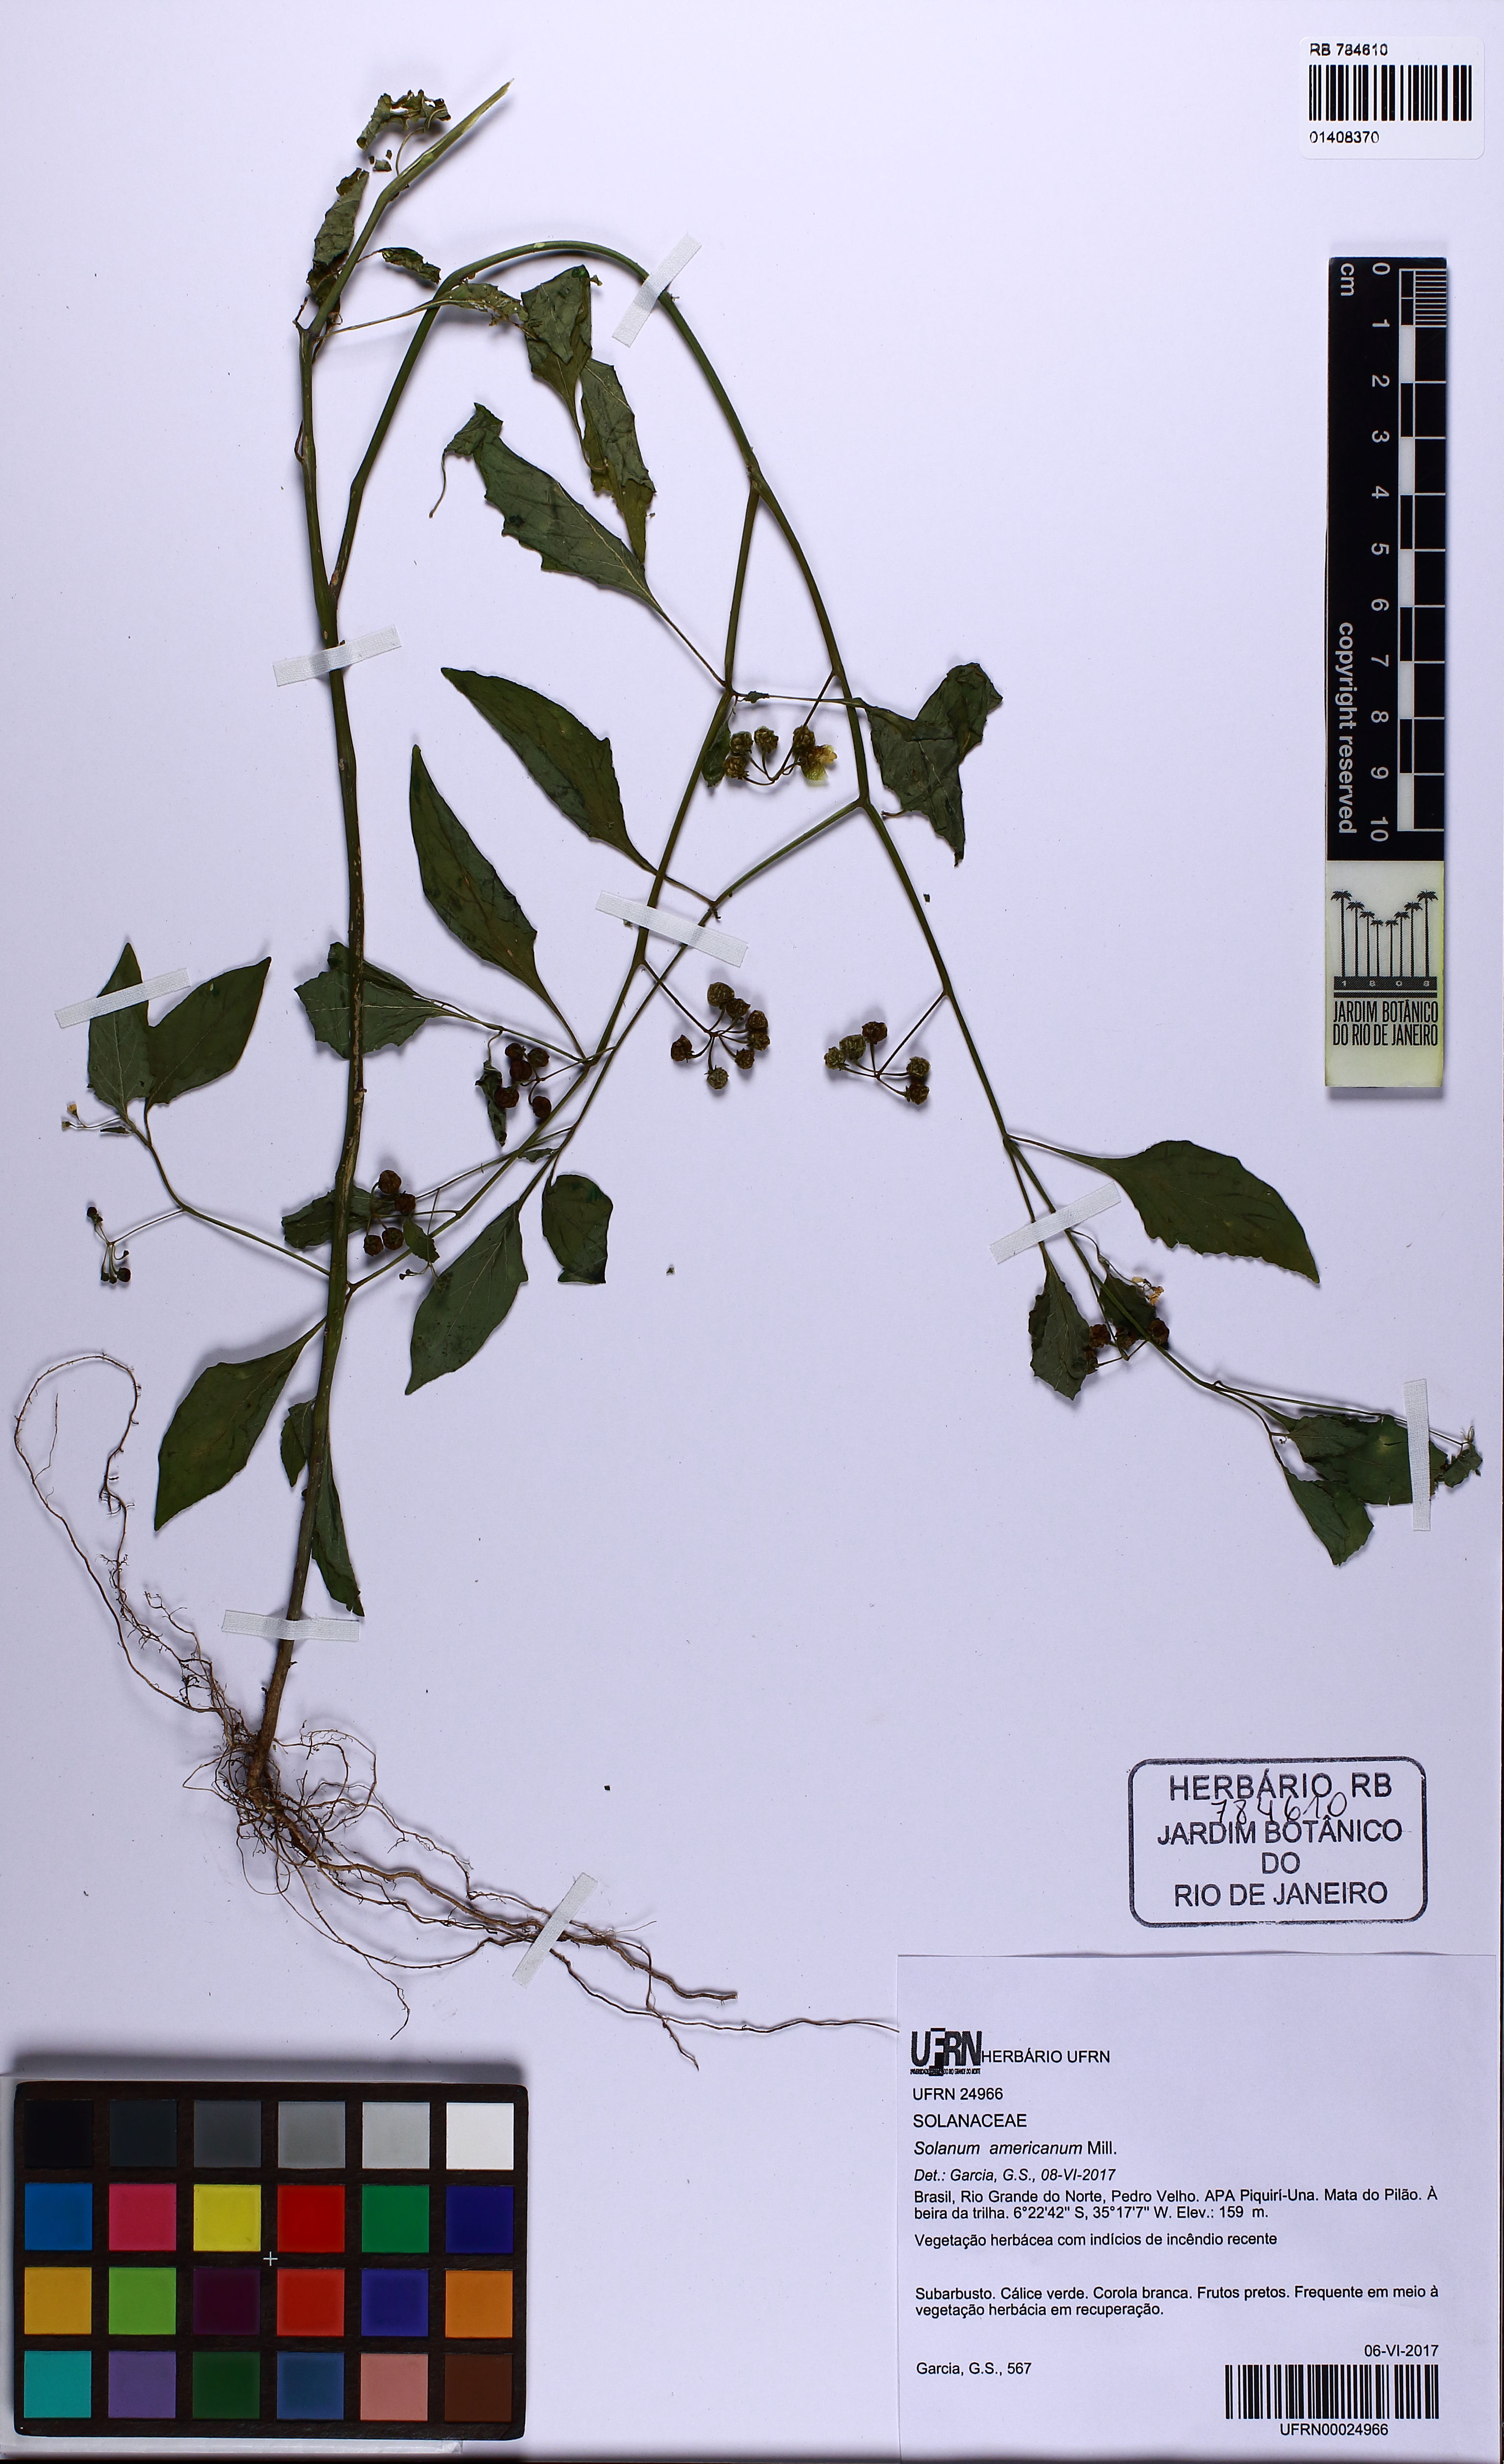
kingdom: Plantae
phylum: Tracheophyta
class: Magnoliopsida
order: Solanales
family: Solanaceae
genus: Solanum
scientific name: Solanum americanum
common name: American black nightshade
